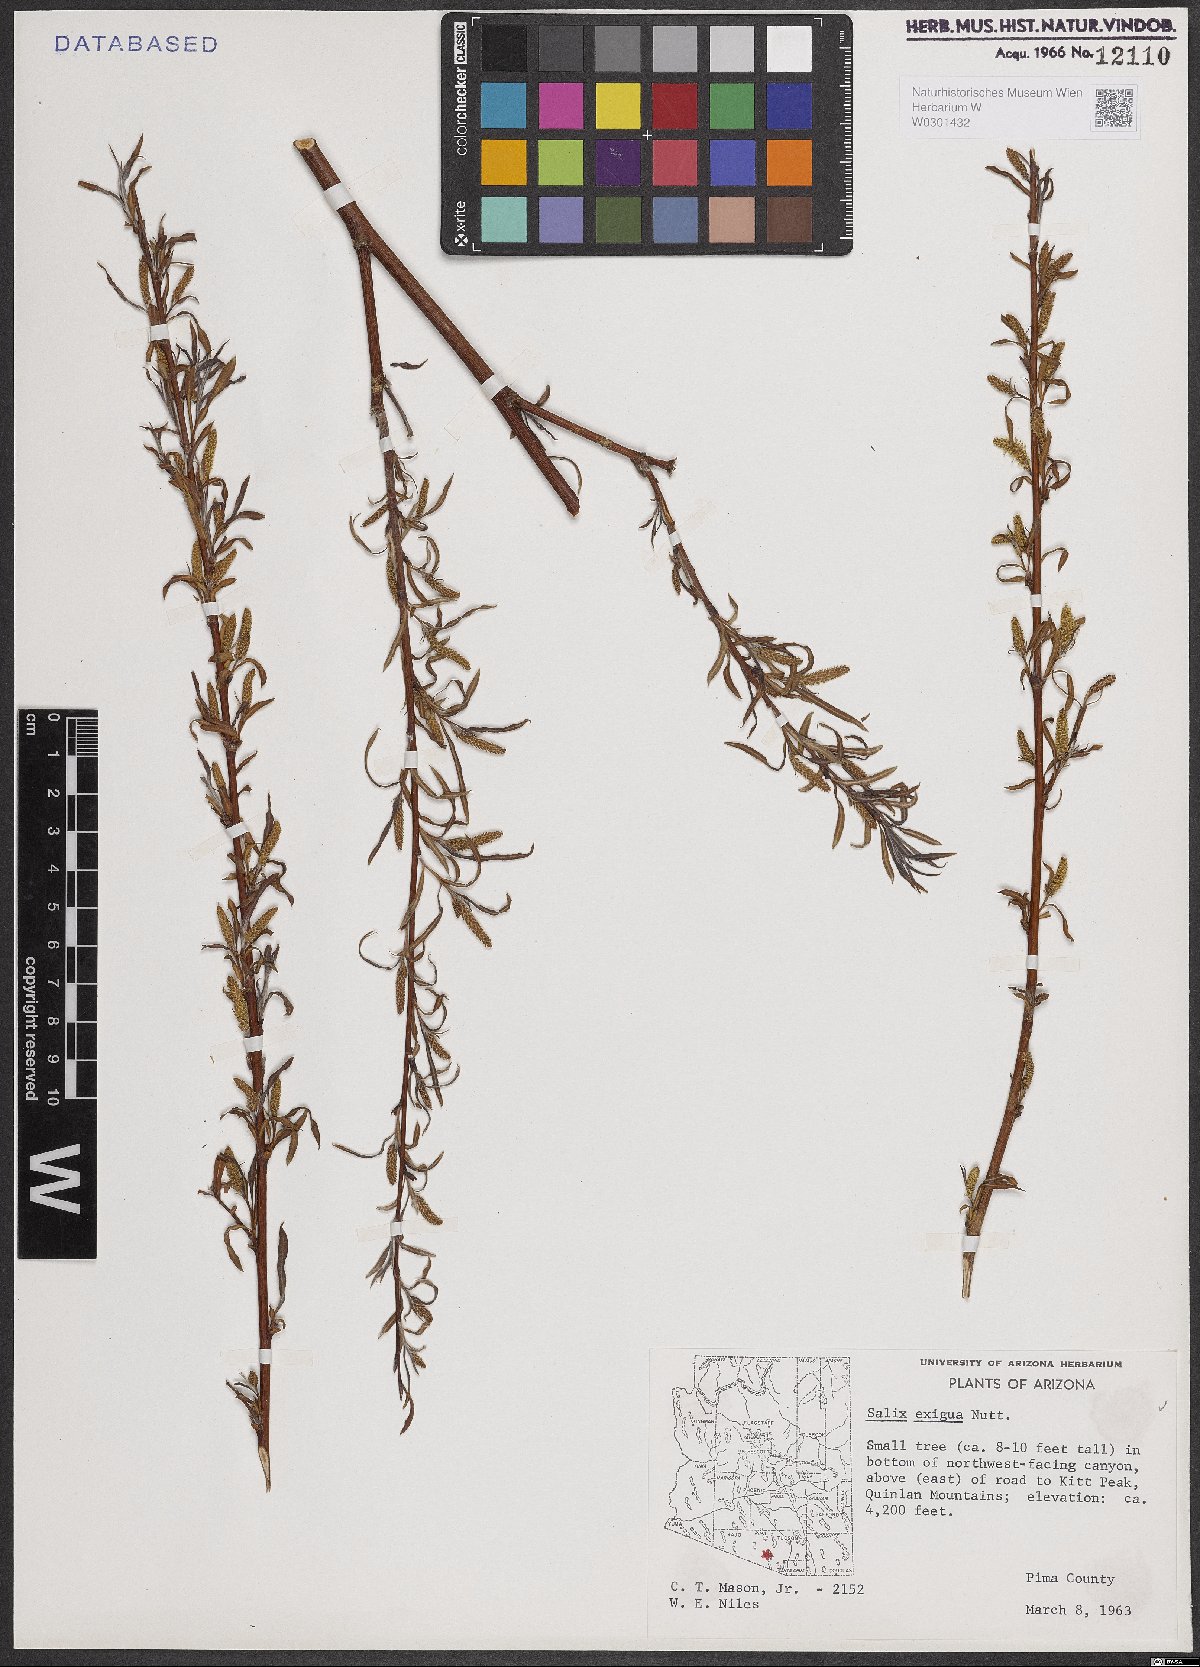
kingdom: Plantae
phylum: Tracheophyta
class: Magnoliopsida
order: Malpighiales
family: Salicaceae
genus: Salix
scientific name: Salix exigua
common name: Coyote willow
